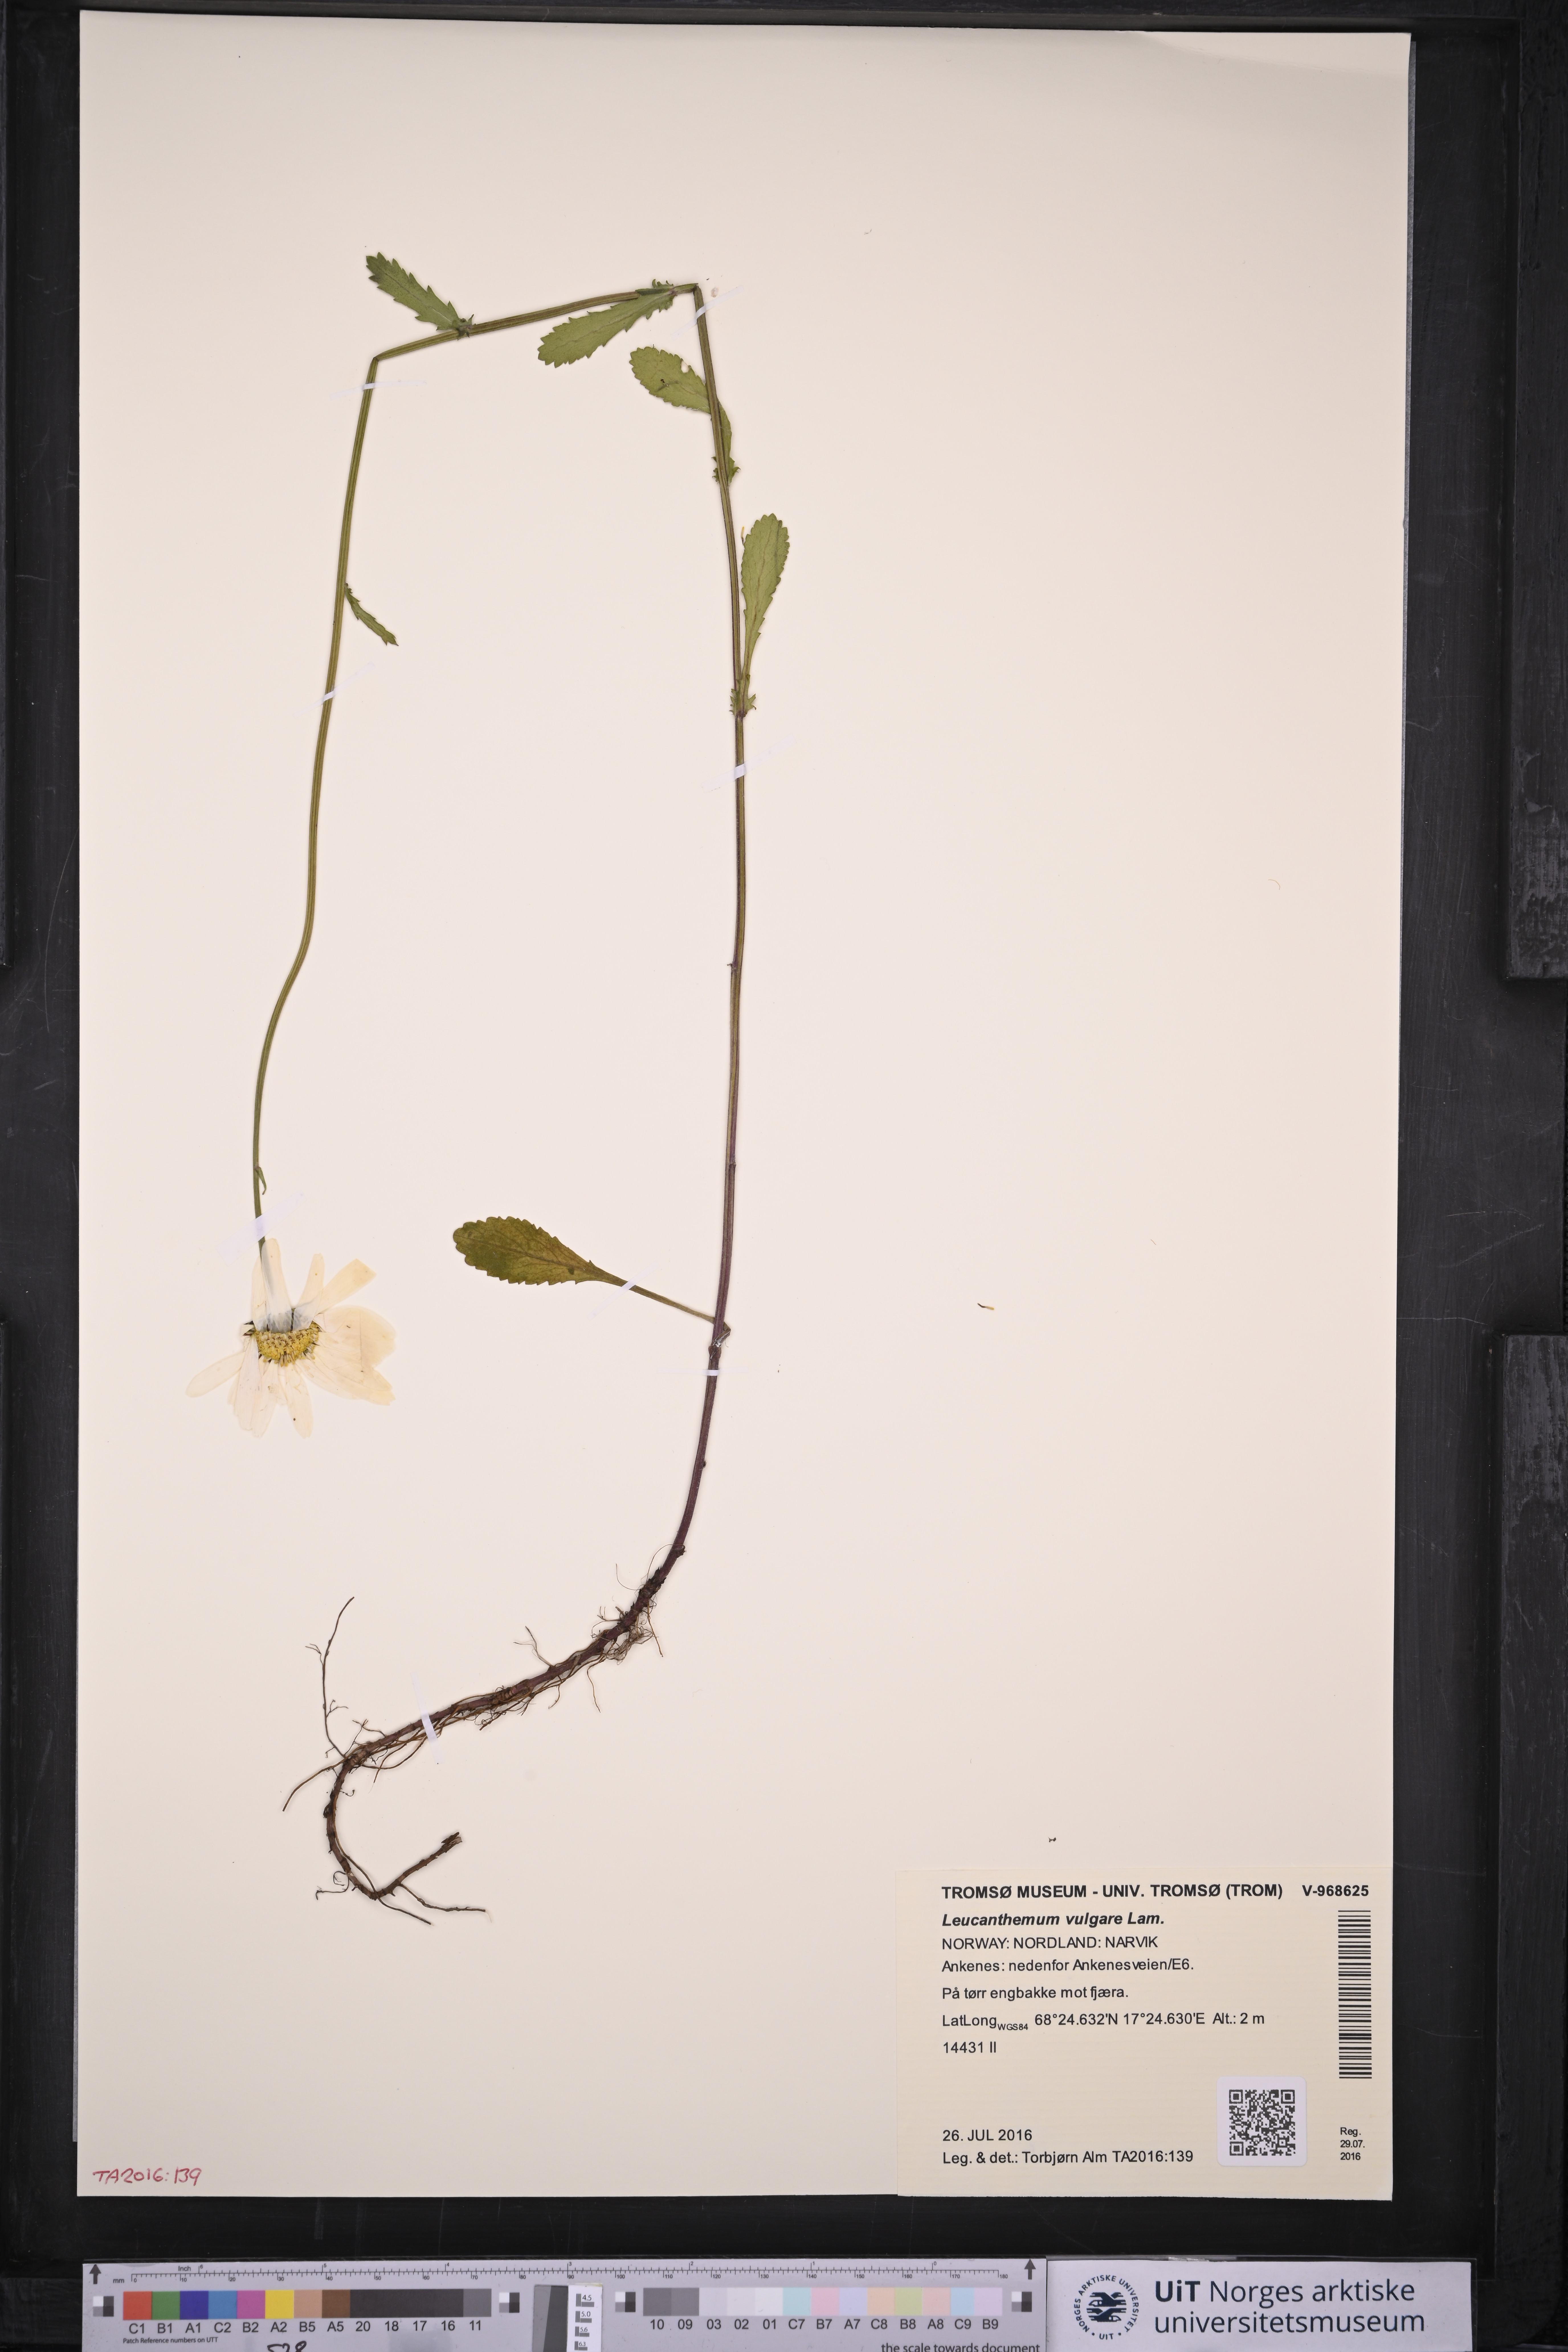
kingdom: Plantae
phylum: Tracheophyta
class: Magnoliopsida
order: Asterales
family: Asteraceae
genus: Leucanthemum
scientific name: Leucanthemum vulgare
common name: Oxeye daisy
